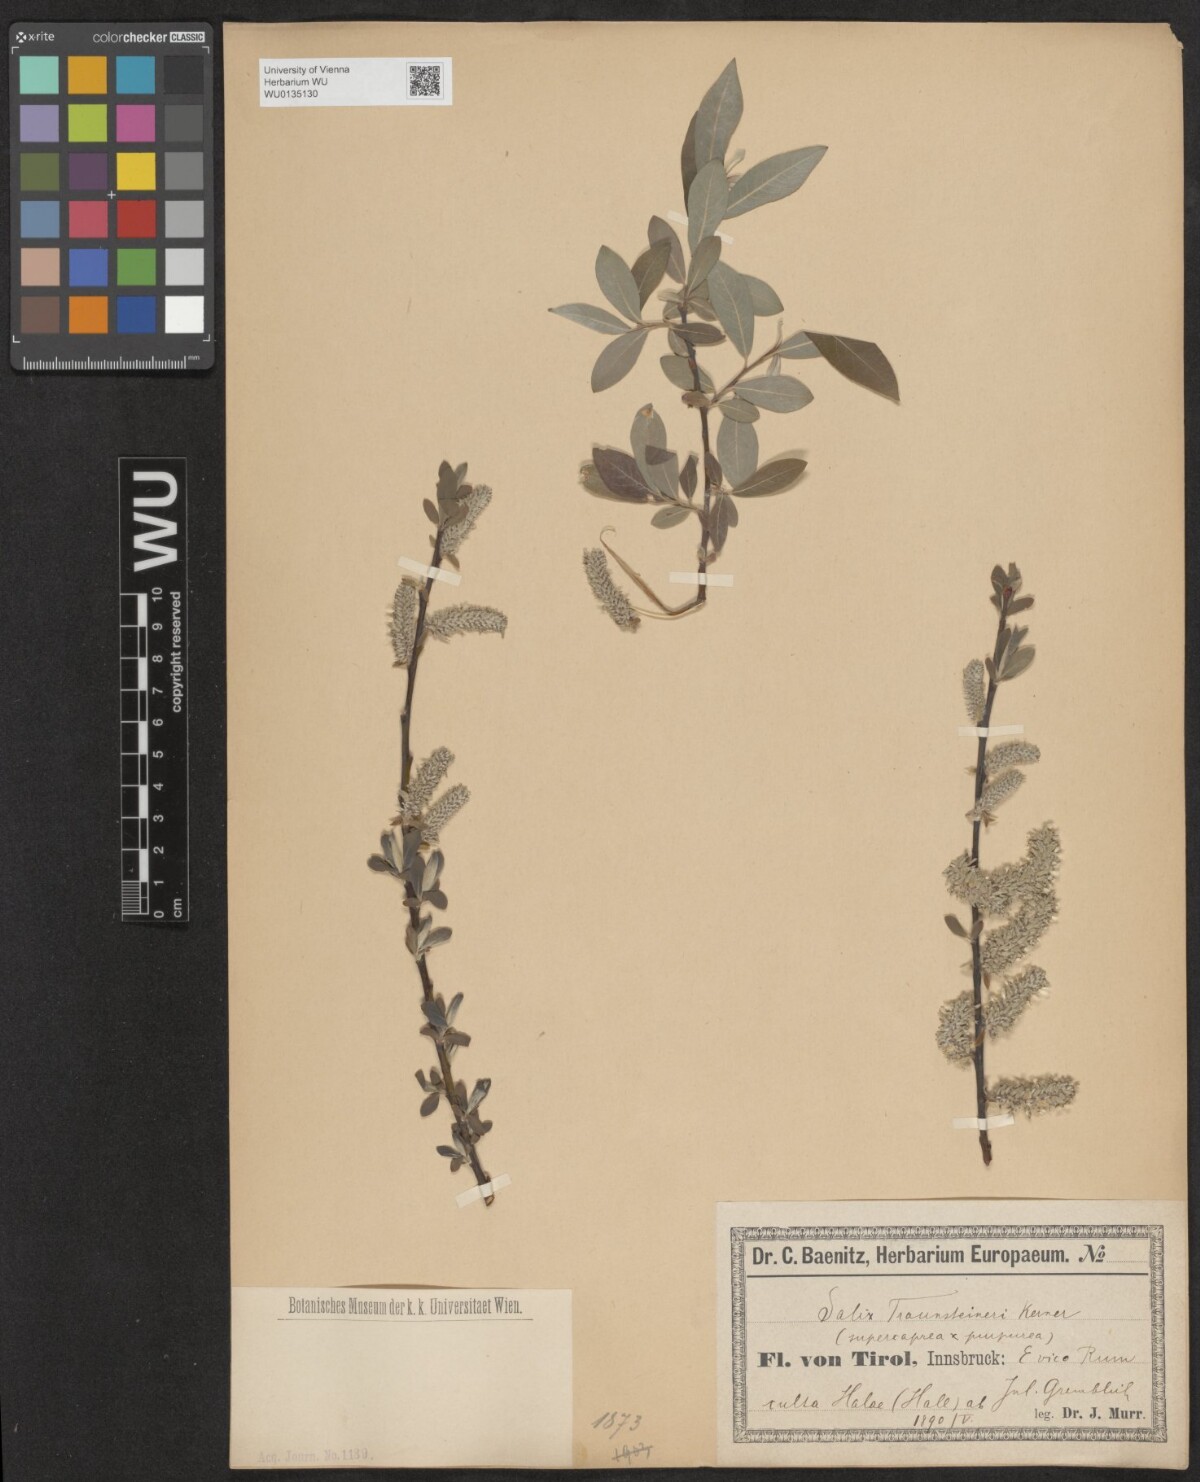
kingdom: Plantae
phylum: Tracheophyta
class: Magnoliopsida
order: Malpighiales
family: Salicaceae
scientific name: Salicaceae
